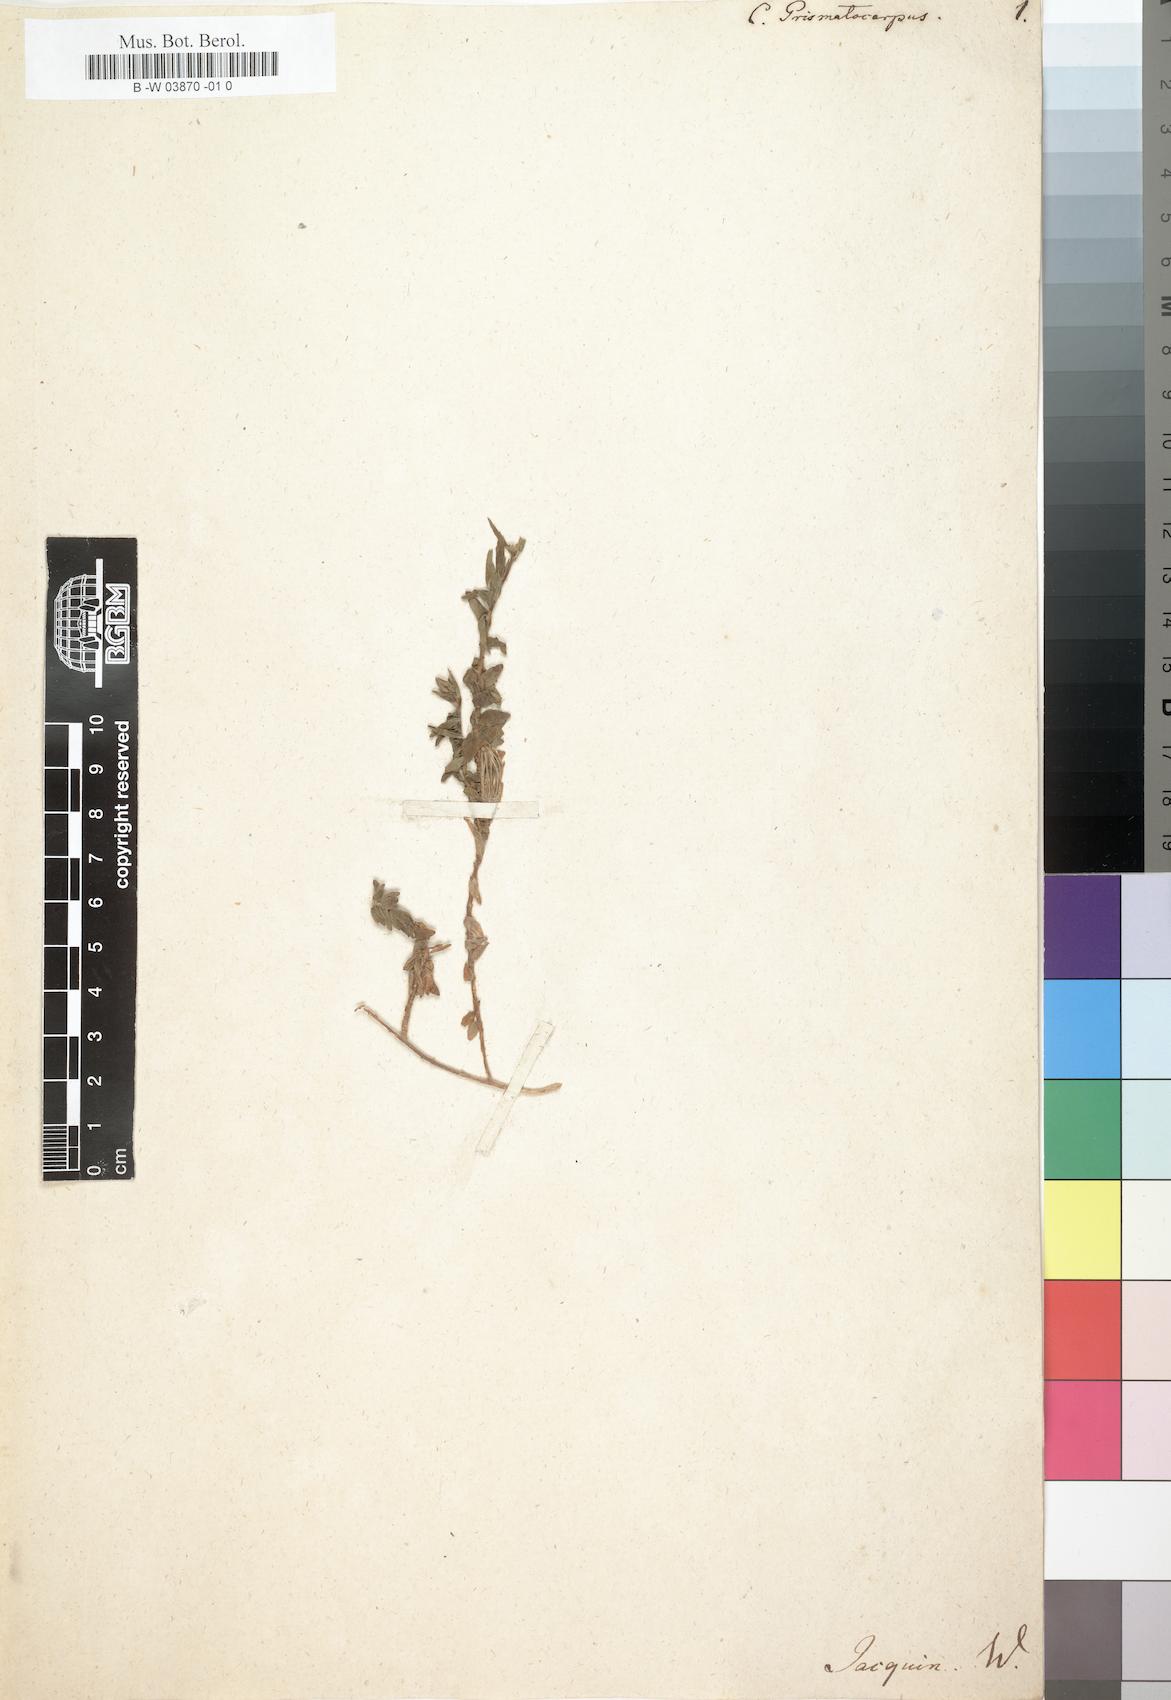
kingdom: Plantae
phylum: Tracheophyta
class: Magnoliopsida
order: Asterales
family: Campanulaceae
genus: Campanula
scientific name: Campanula prismatocarpus
